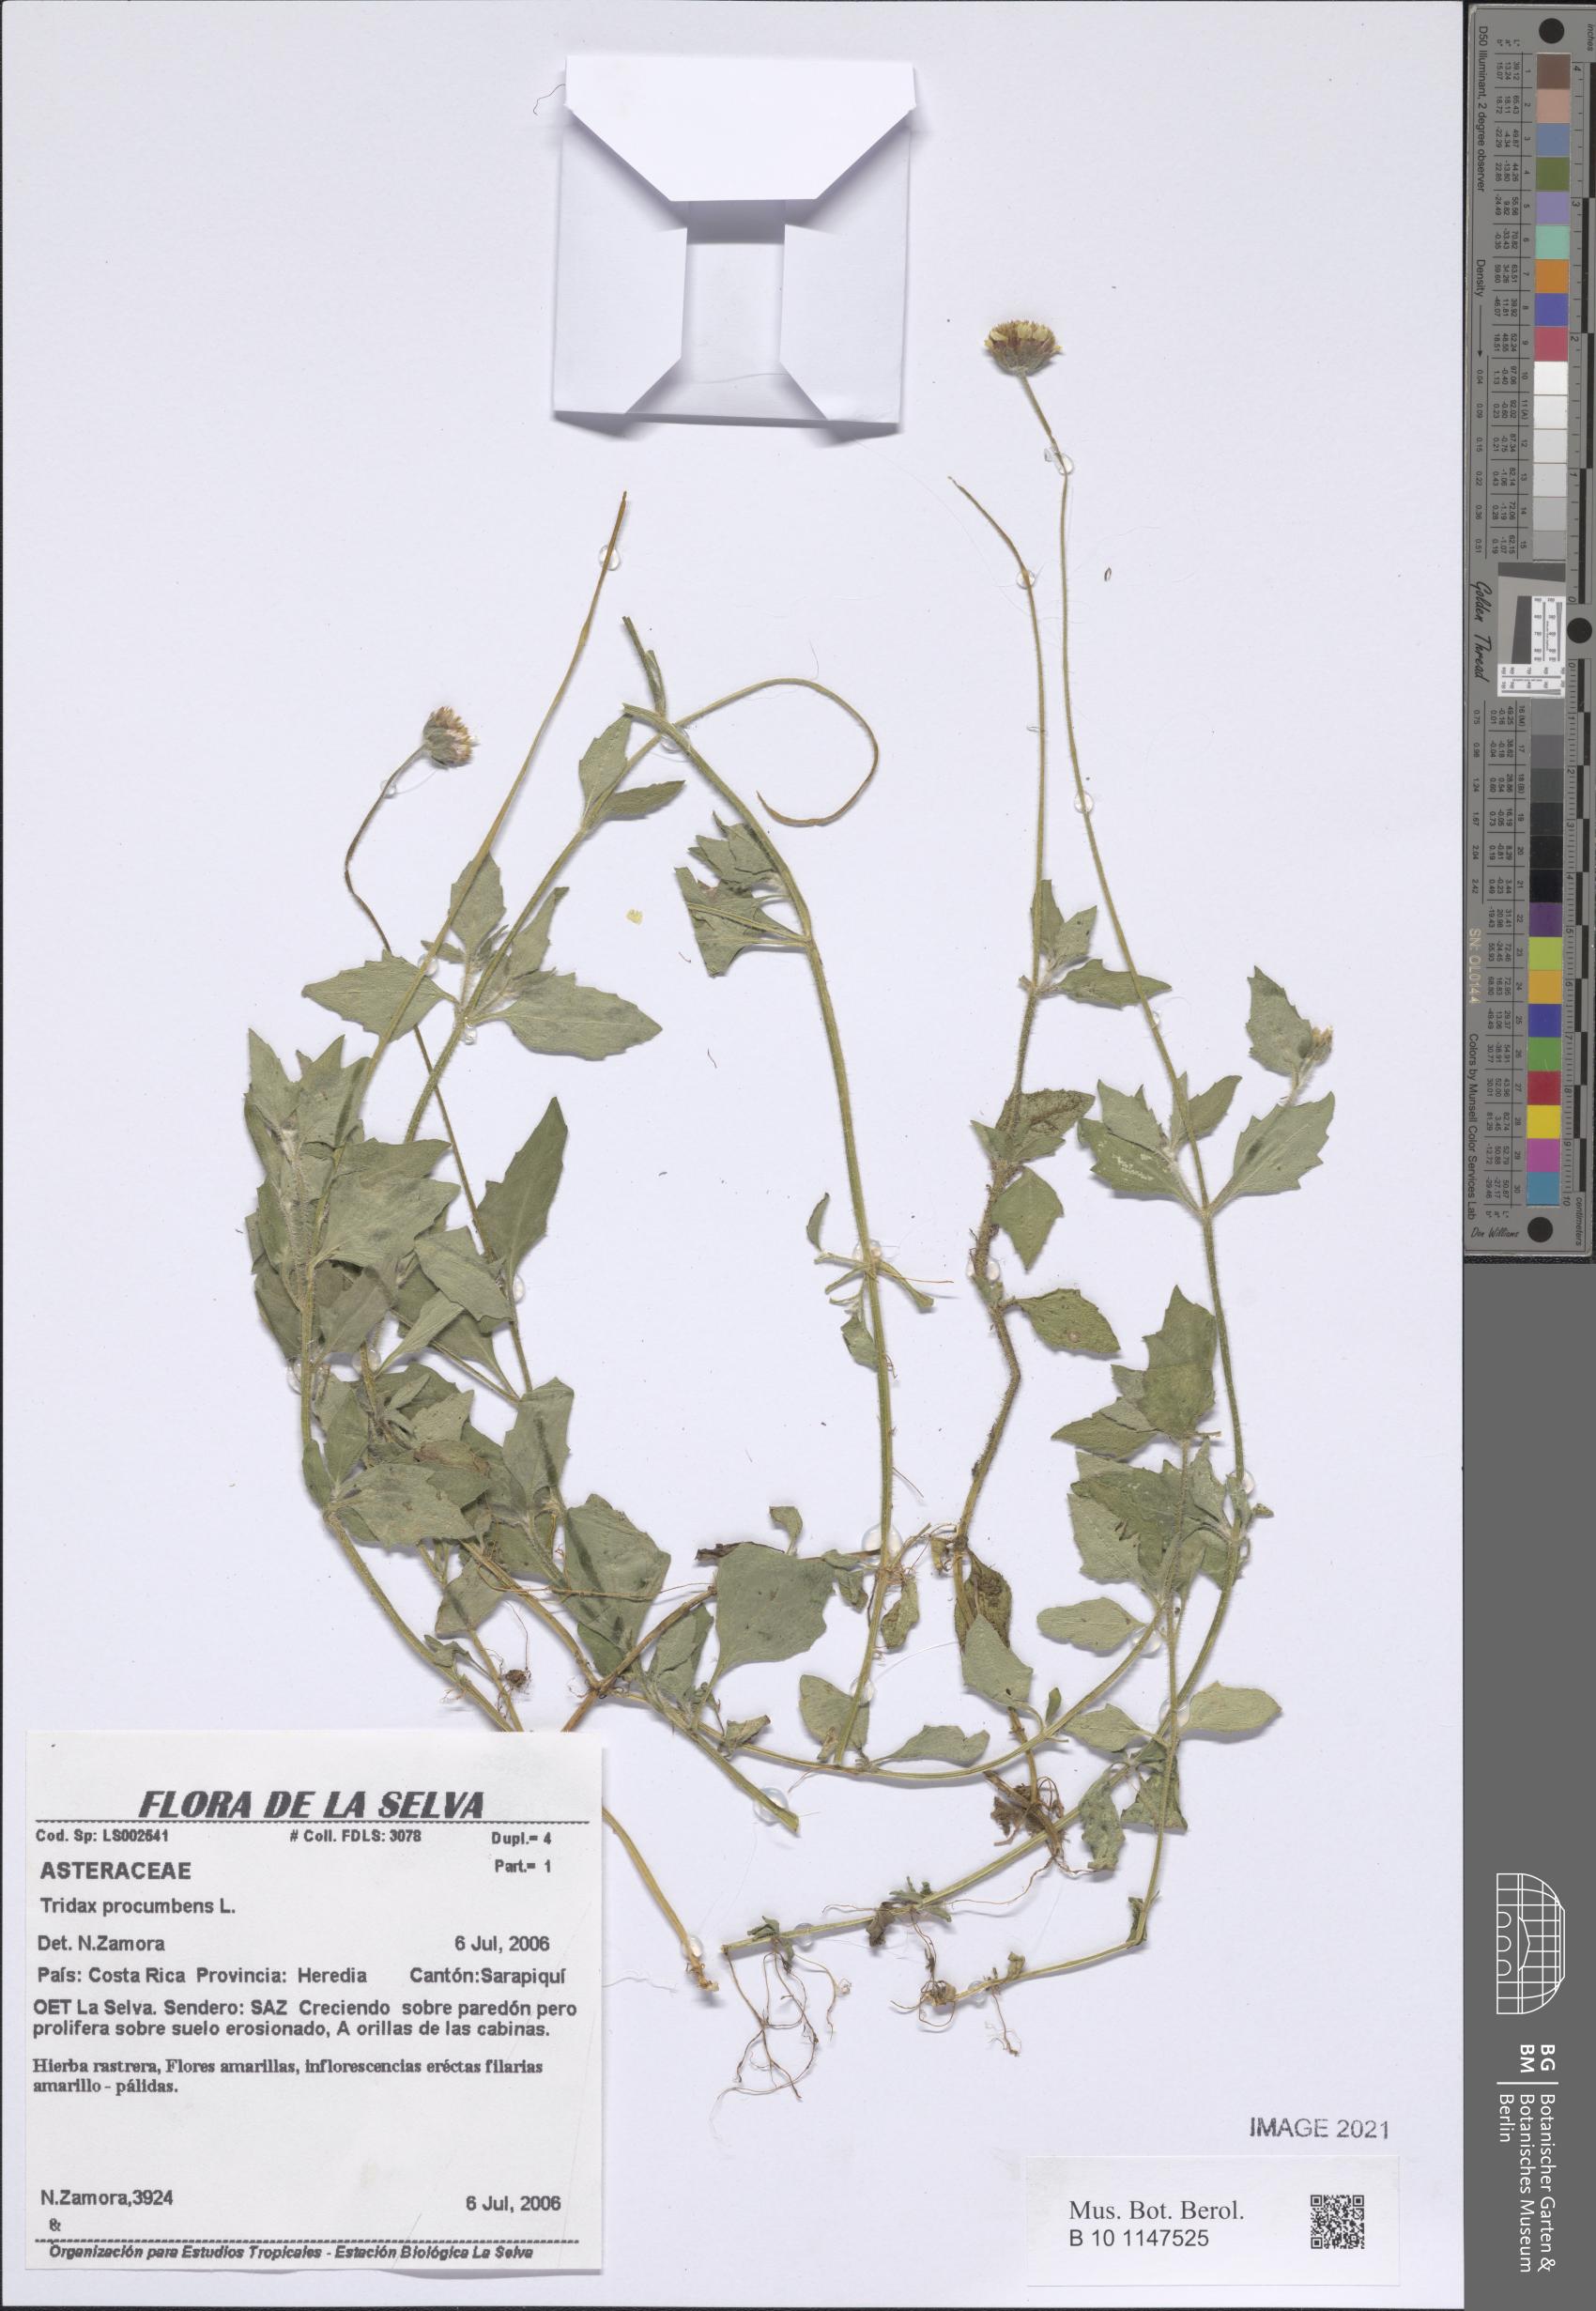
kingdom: Plantae
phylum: Tracheophyta
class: Magnoliopsida
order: Asterales
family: Asteraceae
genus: Tridax
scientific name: Tridax procumbens
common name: Coatbuttons
